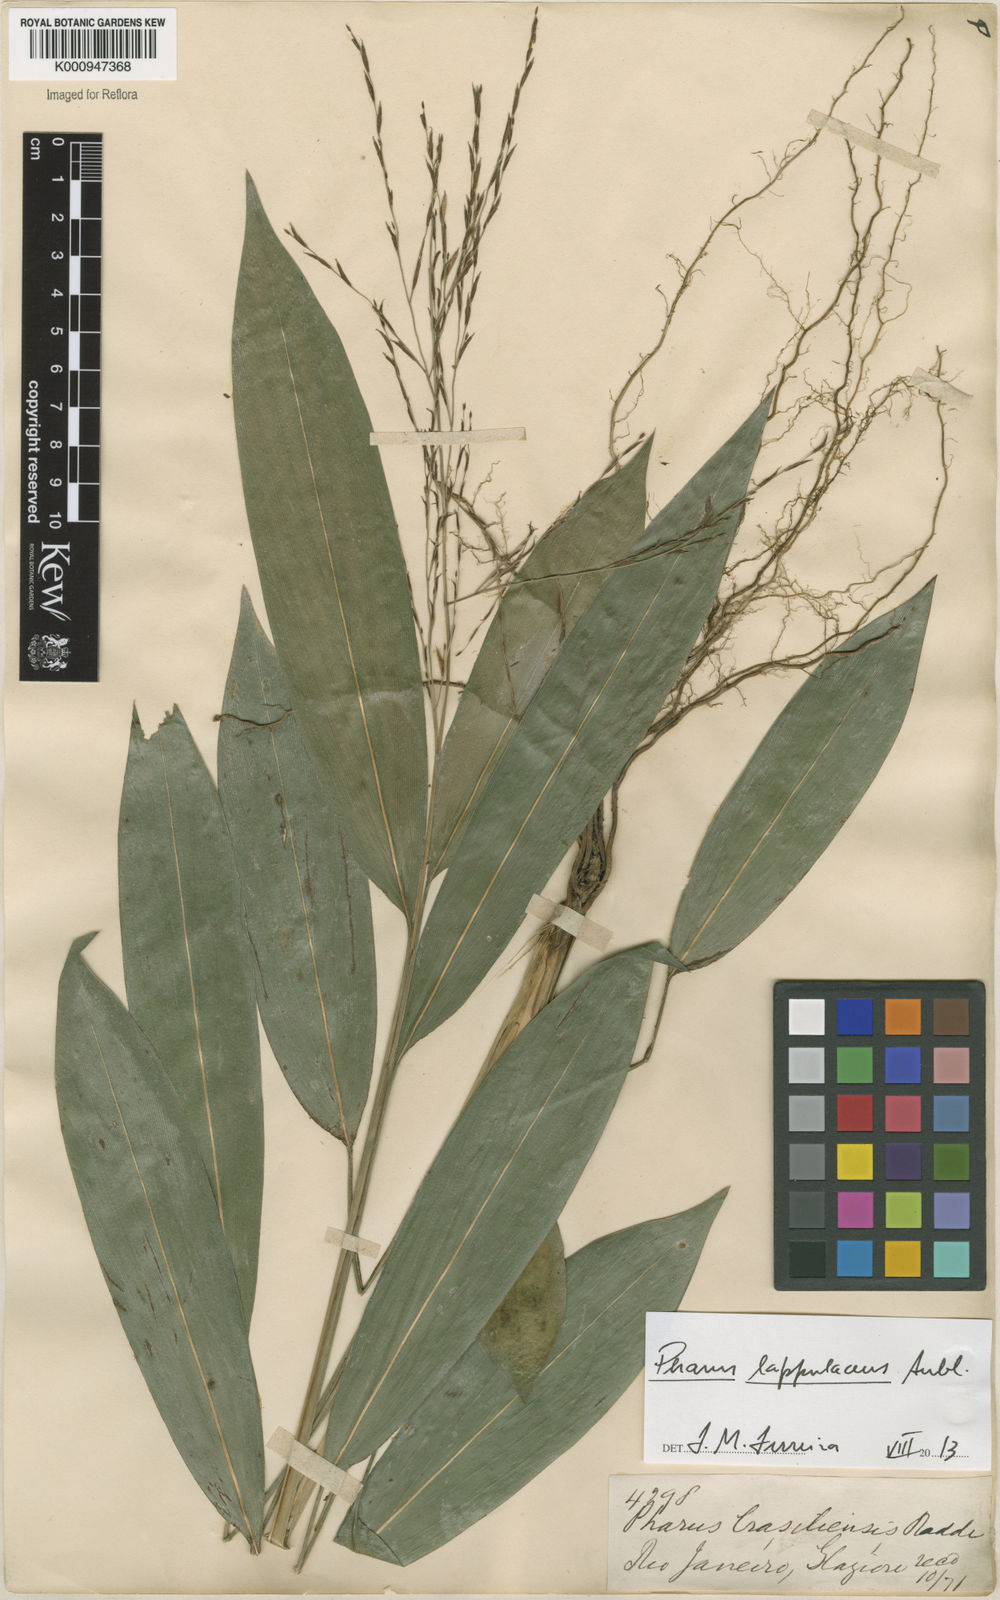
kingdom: Plantae
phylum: Tracheophyta
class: Liliopsida
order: Poales
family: Poaceae
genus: Pharus
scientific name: Pharus lappulaceus
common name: Creeping leafstalk grass
